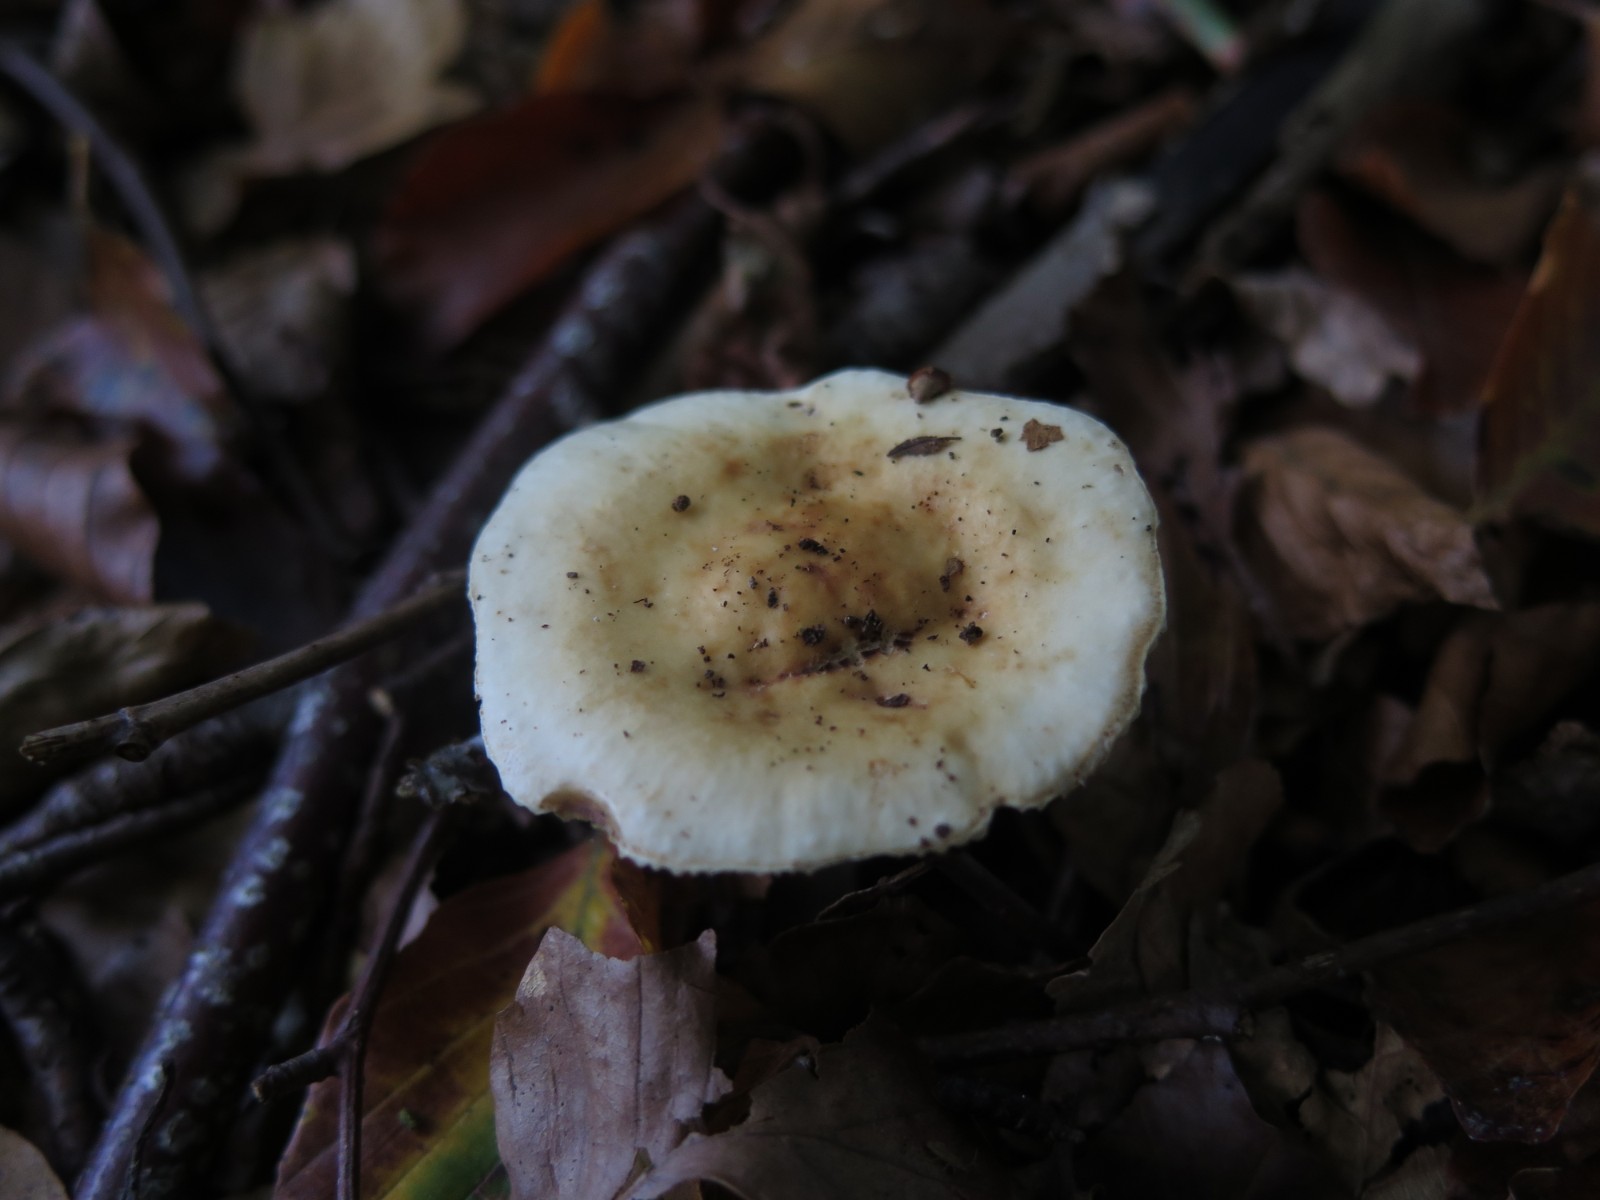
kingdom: Fungi
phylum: Basidiomycota
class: Agaricomycetes
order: Russulales
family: Russulaceae
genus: Russula
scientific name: Russula ochroleuca
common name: okkergul skørhat
